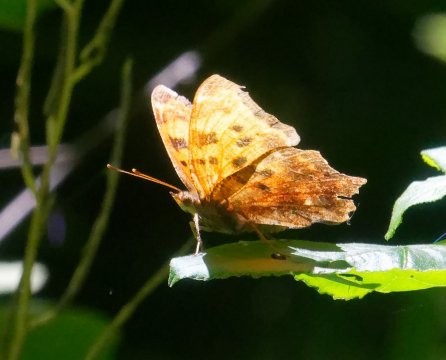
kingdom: Animalia
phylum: Arthropoda
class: Insecta
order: Lepidoptera
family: Nymphalidae
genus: Polygonia
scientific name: Polygonia comma
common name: Eastern Comma
